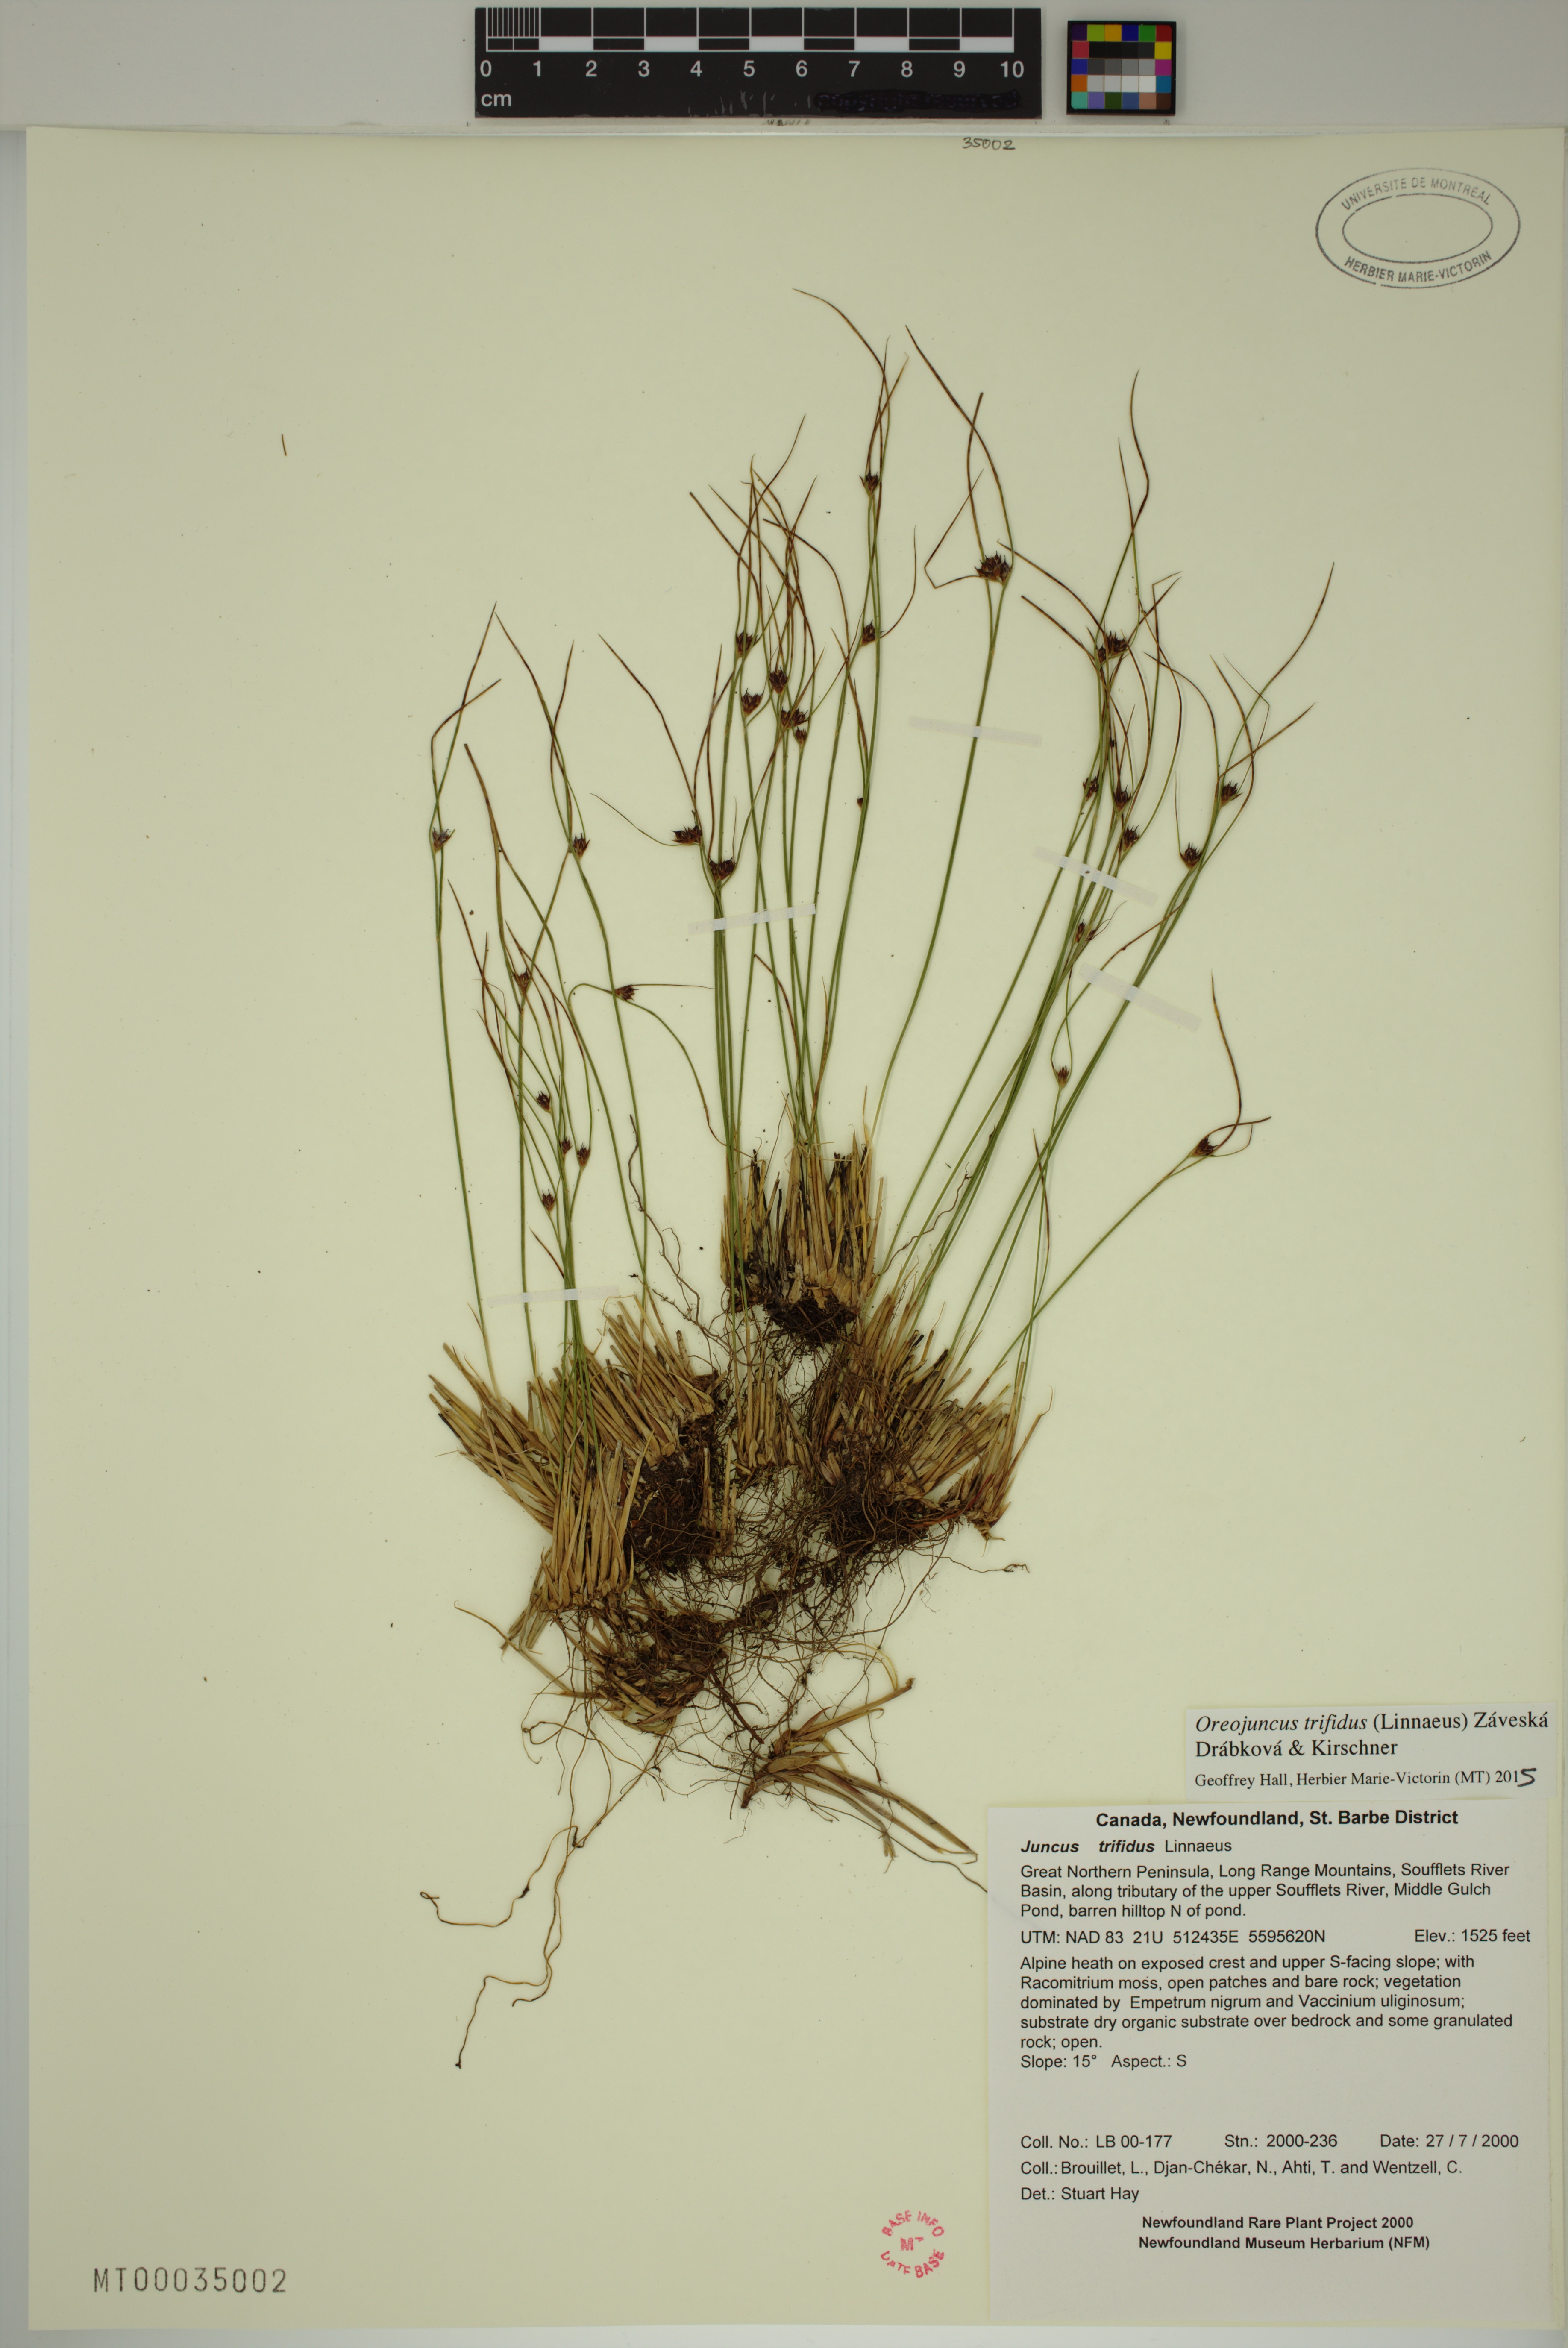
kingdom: Plantae
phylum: Tracheophyta
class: Liliopsida
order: Poales
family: Juncaceae
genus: Oreojuncus
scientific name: Oreojuncus trifidus
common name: Highland rush
